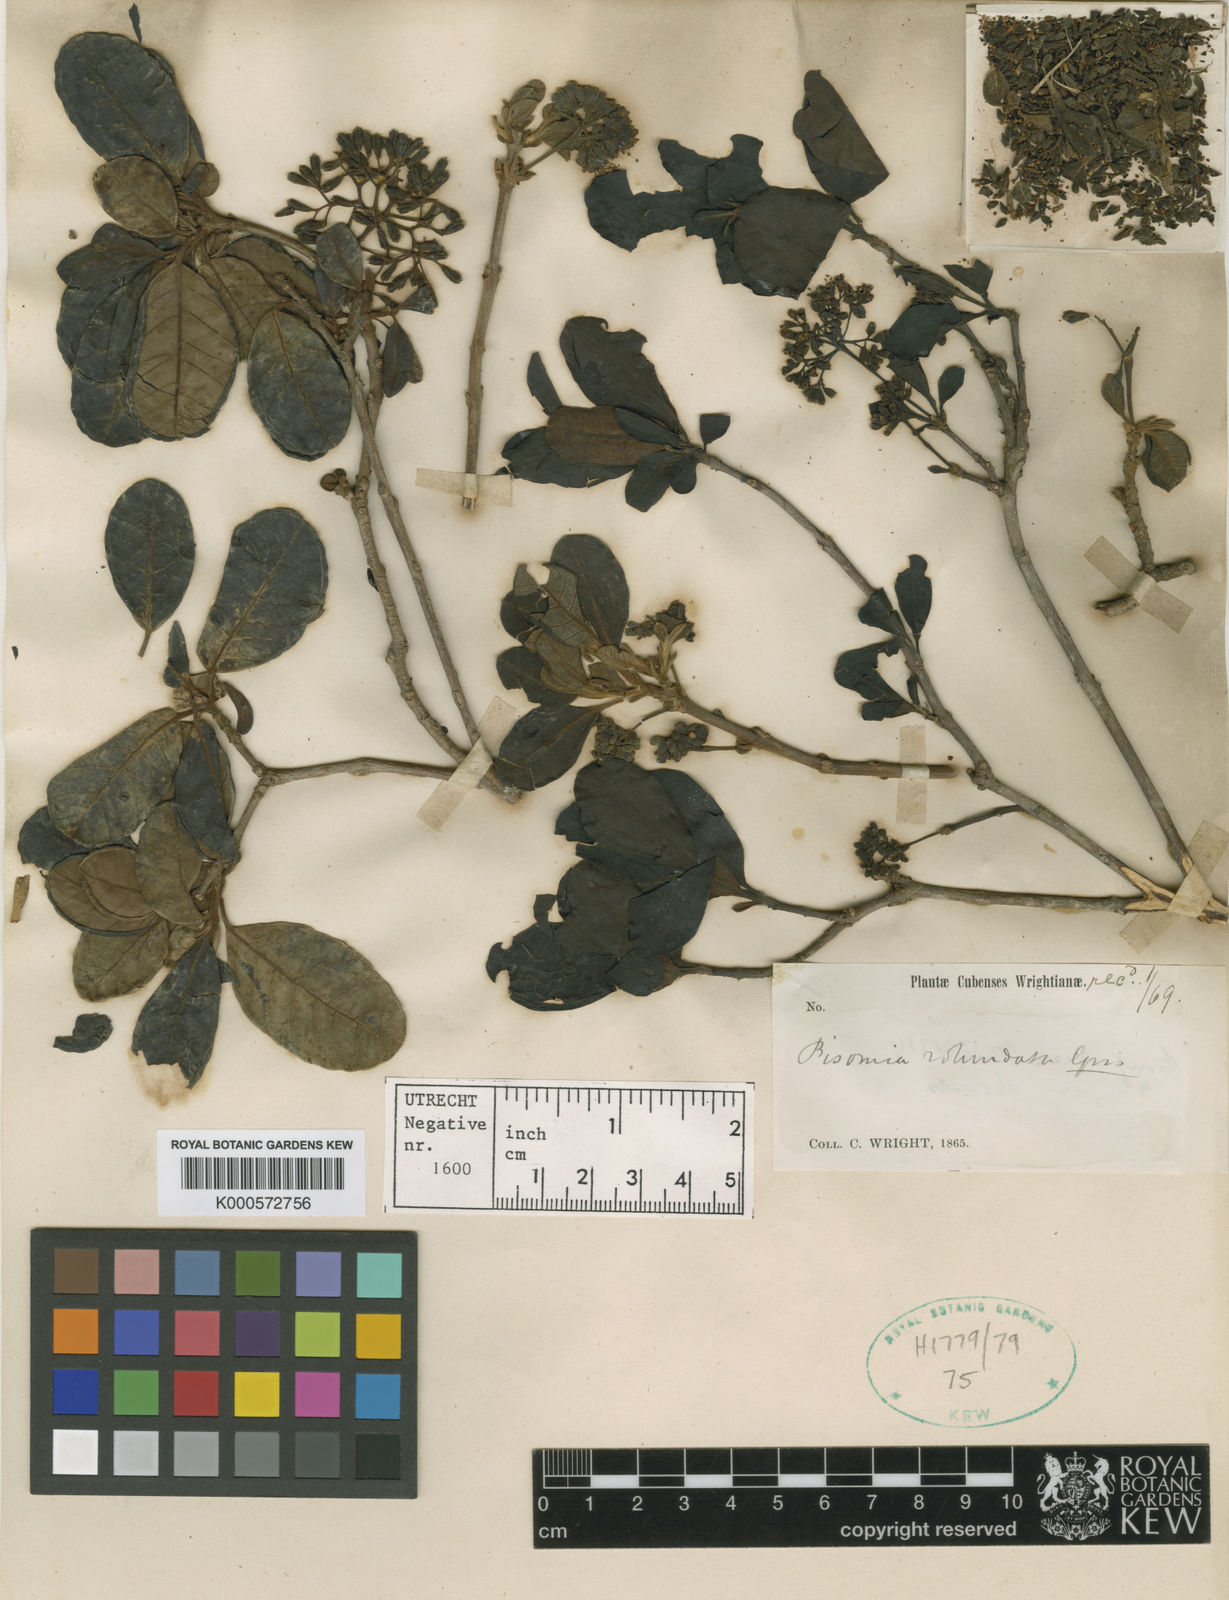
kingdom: Plantae
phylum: Tracheophyta
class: Magnoliopsida
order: Caryophyllales
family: Nyctaginaceae
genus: Pisonia
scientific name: Pisonia rotundata
